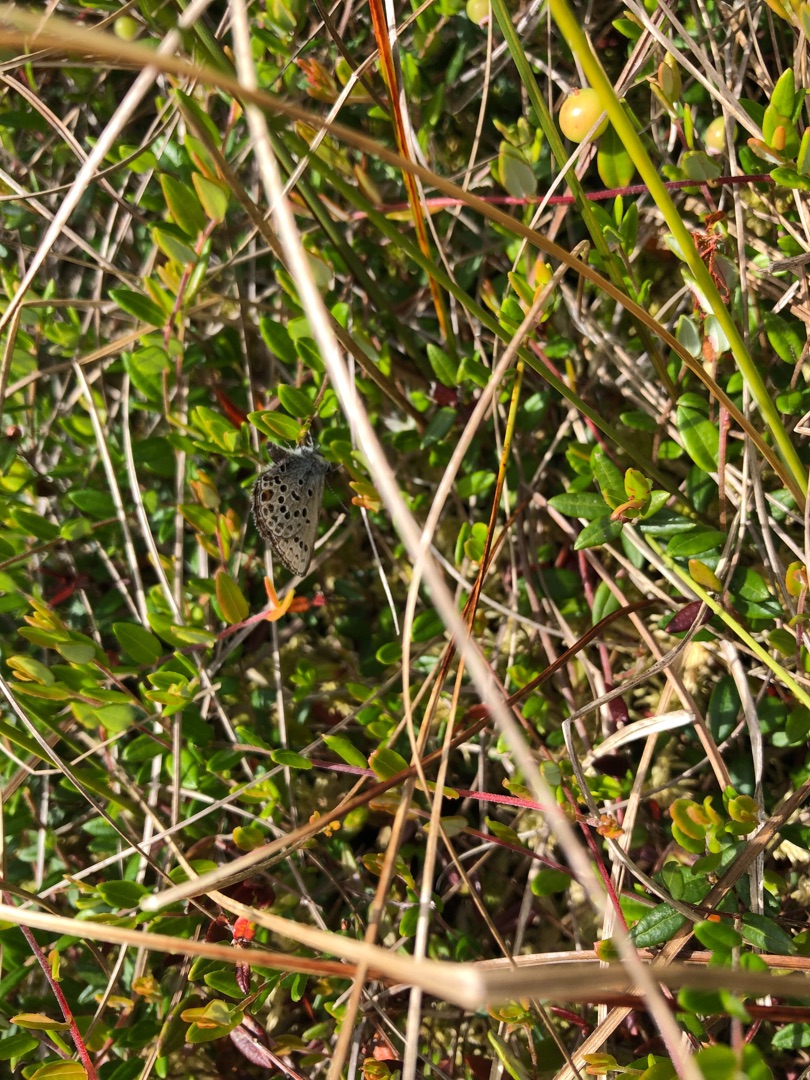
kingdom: Animalia
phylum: Arthropoda
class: Insecta
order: Lepidoptera
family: Lycaenidae
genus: Vacciniina
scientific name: Vacciniina optilete
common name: Bølleblåfugl
